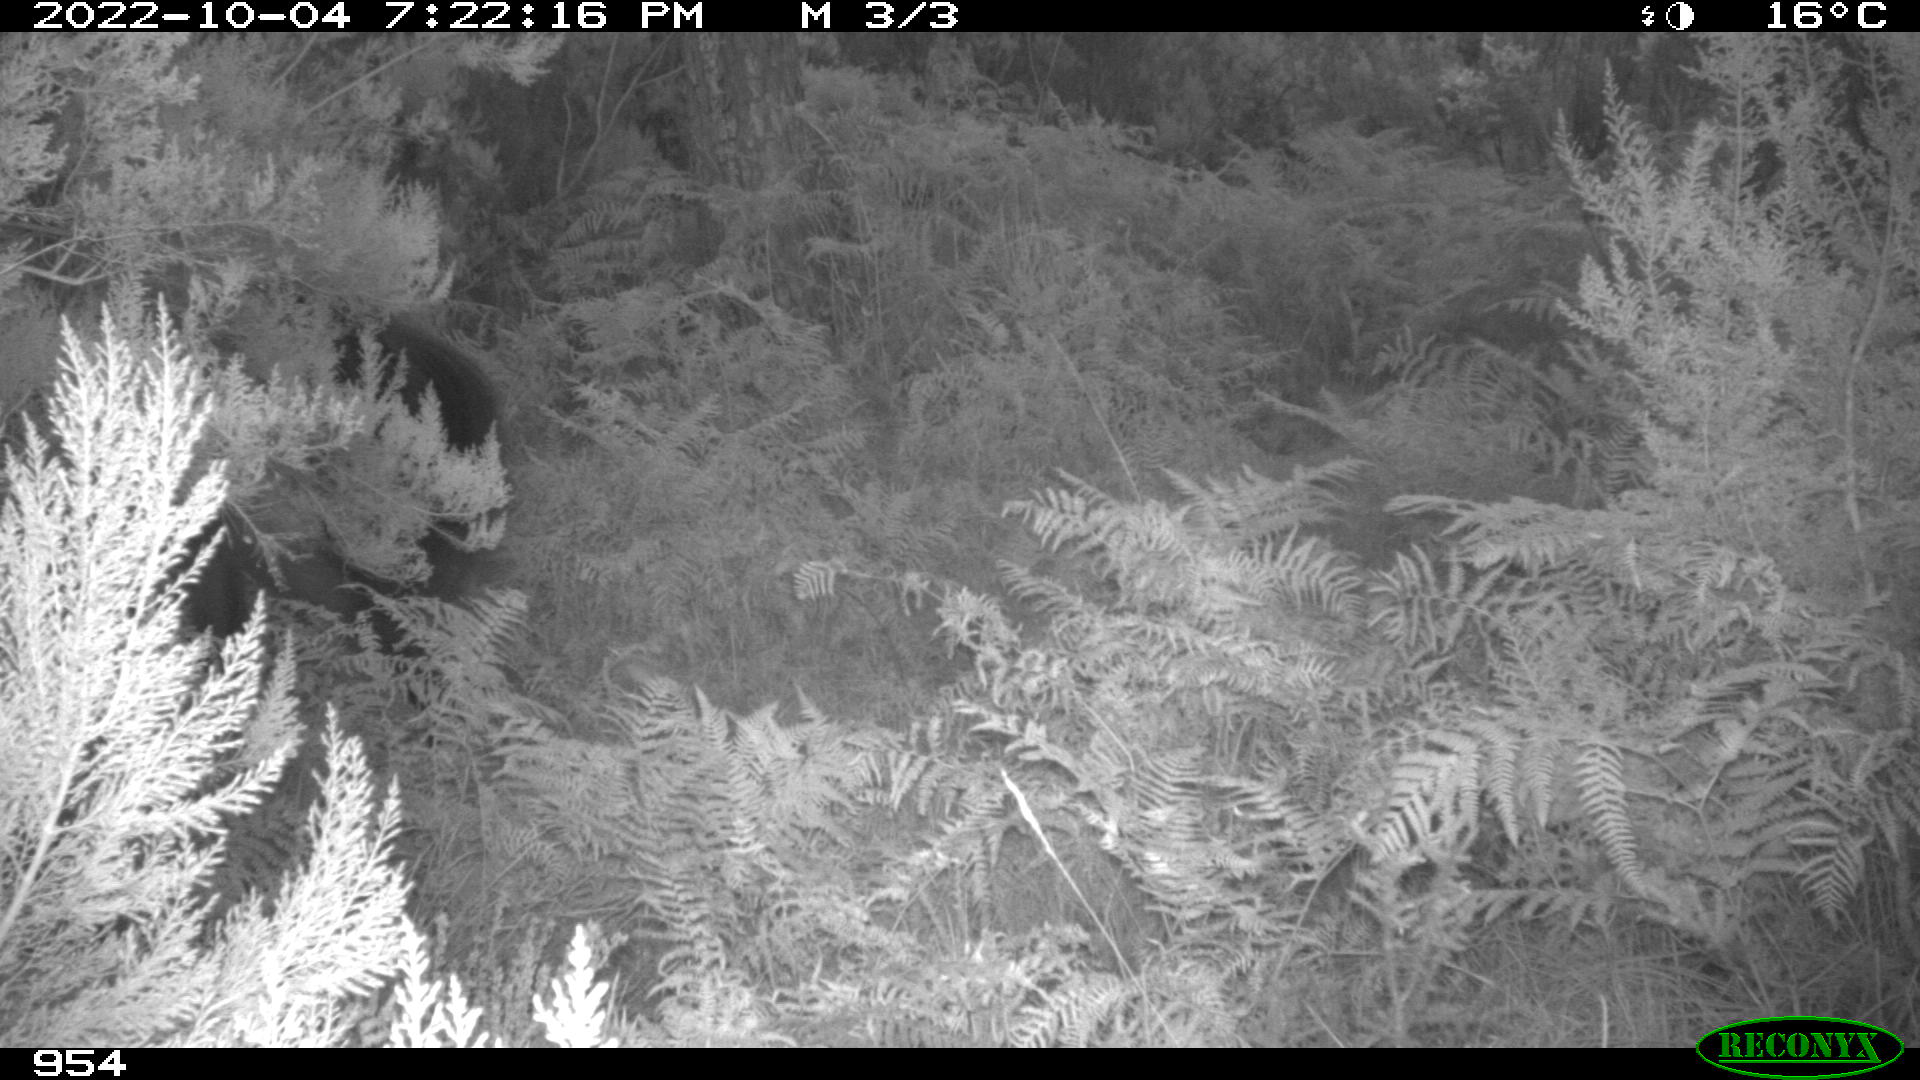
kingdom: Animalia
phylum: Chordata
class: Mammalia
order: Perissodactyla
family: Equidae
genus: Equus
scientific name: Equus caballus
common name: Horse
